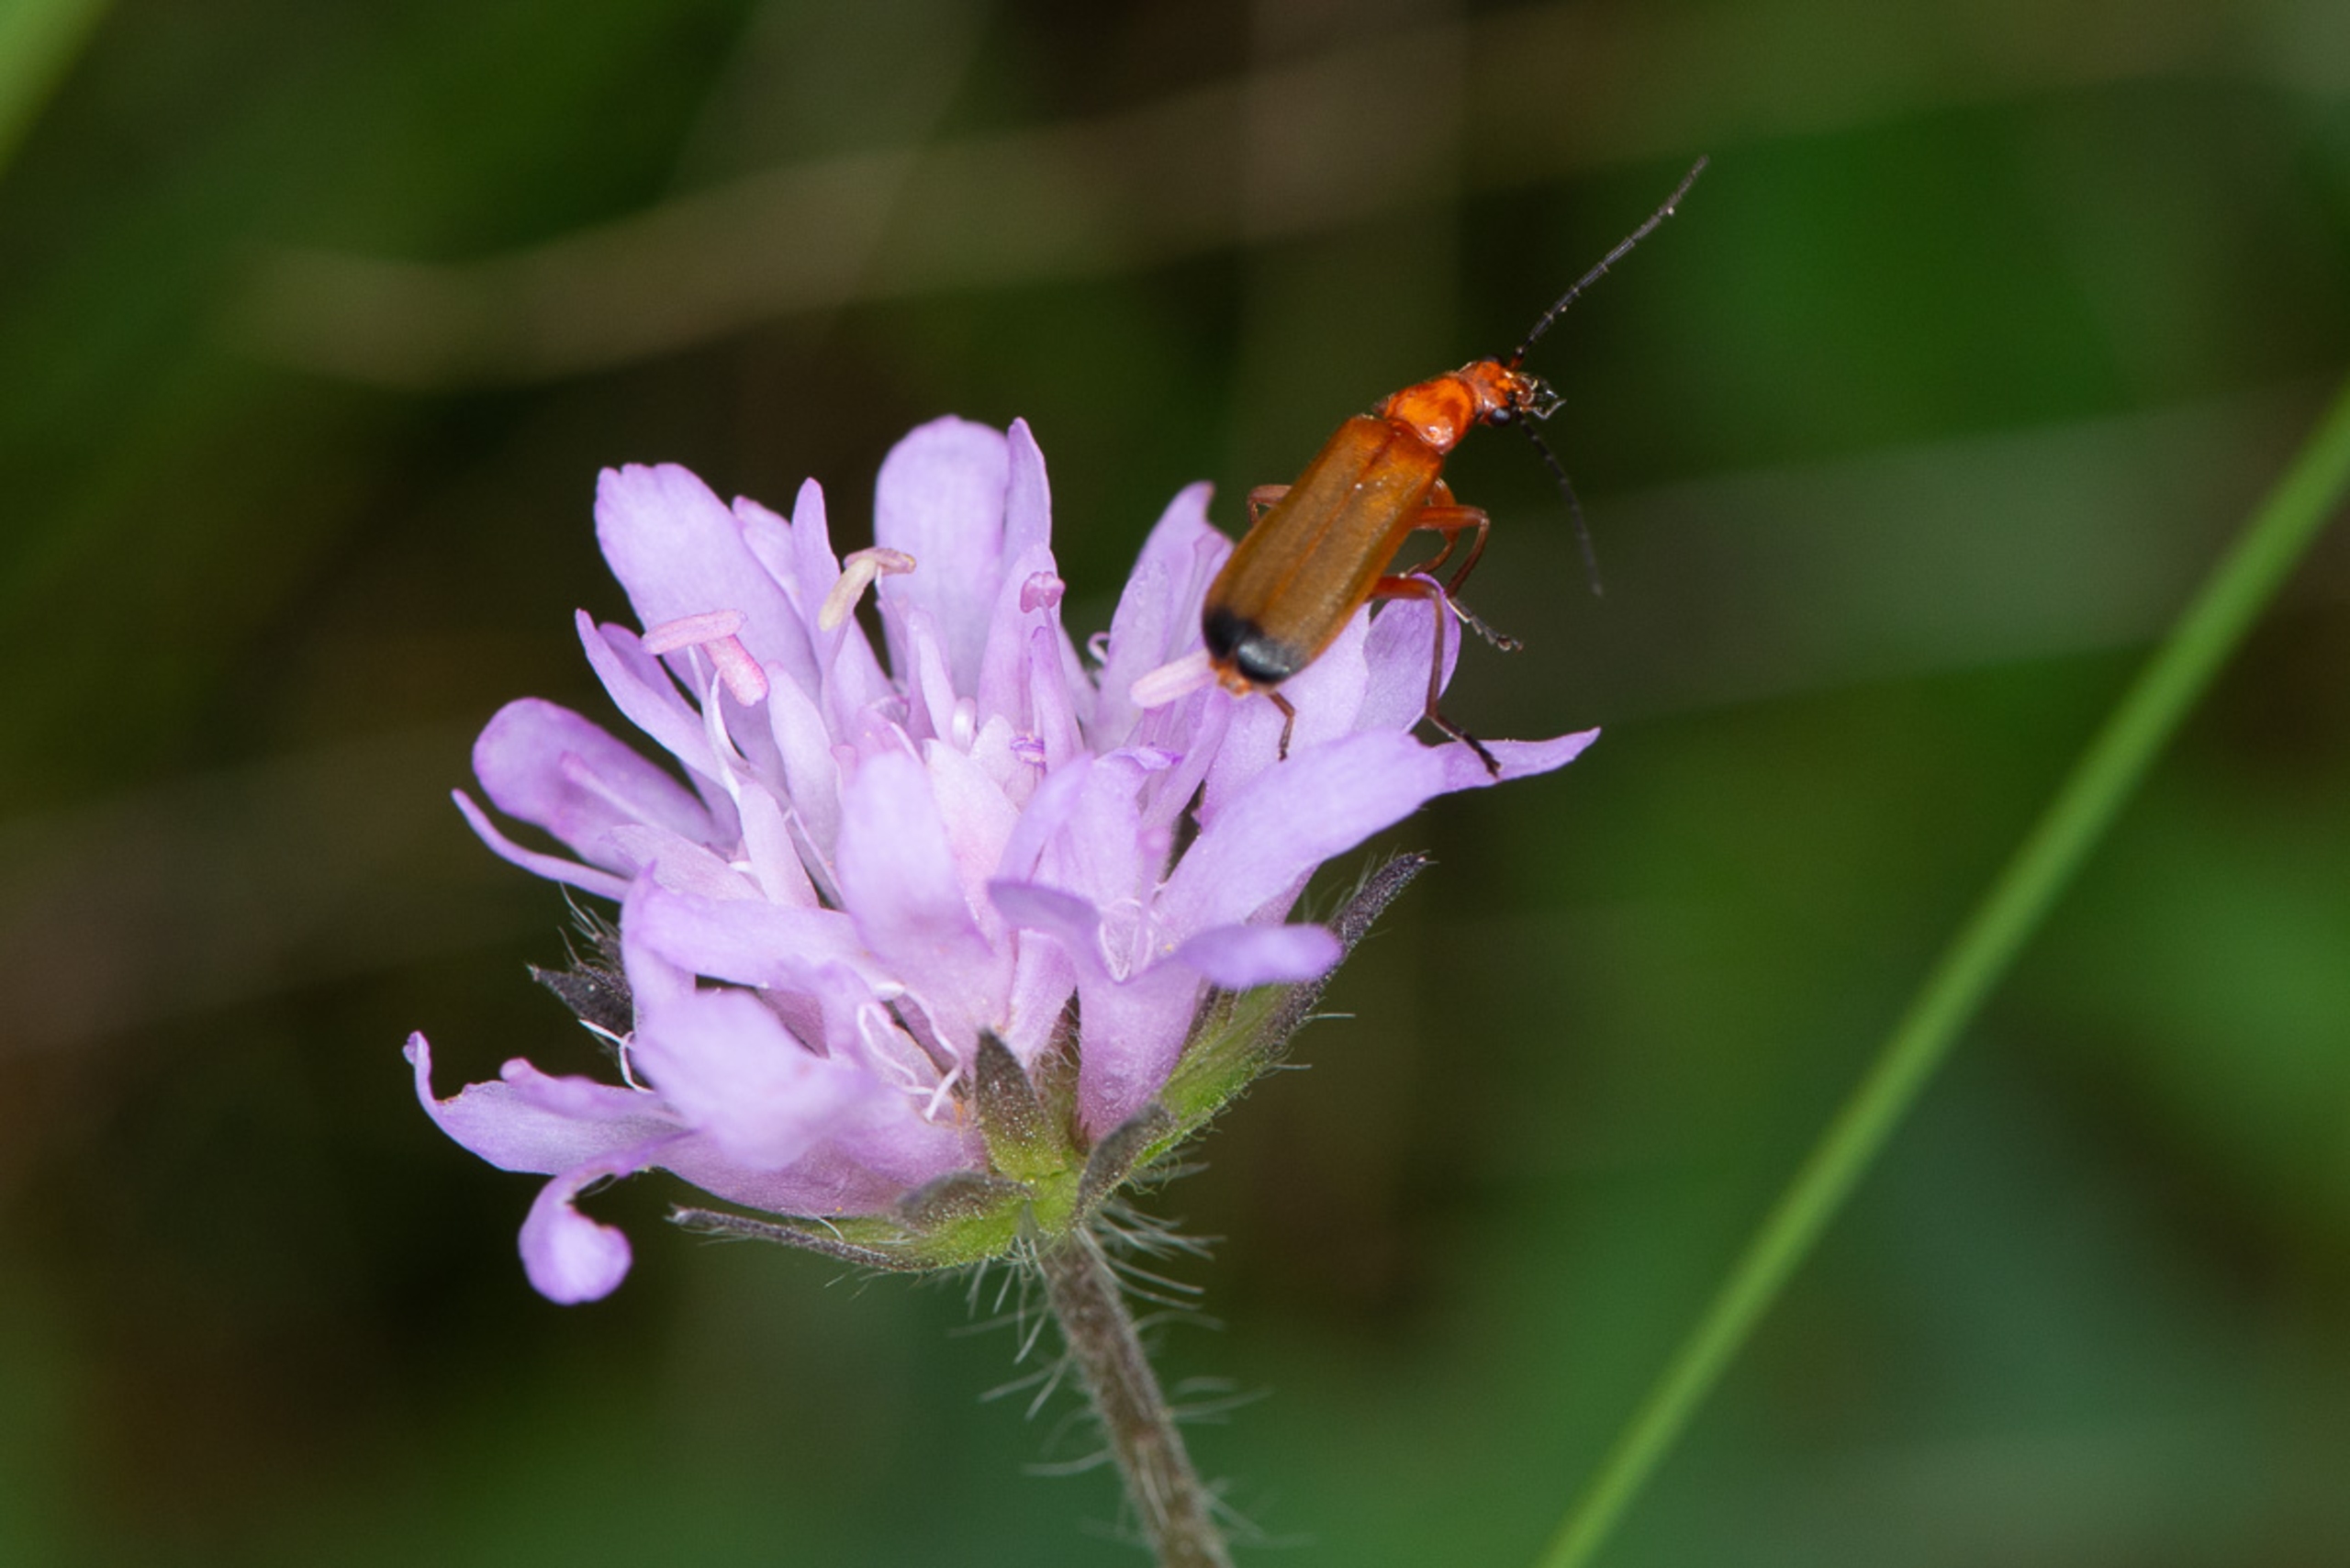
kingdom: Animalia
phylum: Arthropoda
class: Insecta
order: Coleoptera
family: Cantharidae
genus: Rhagonycha
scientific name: Rhagonycha fulva
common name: Præstebille
